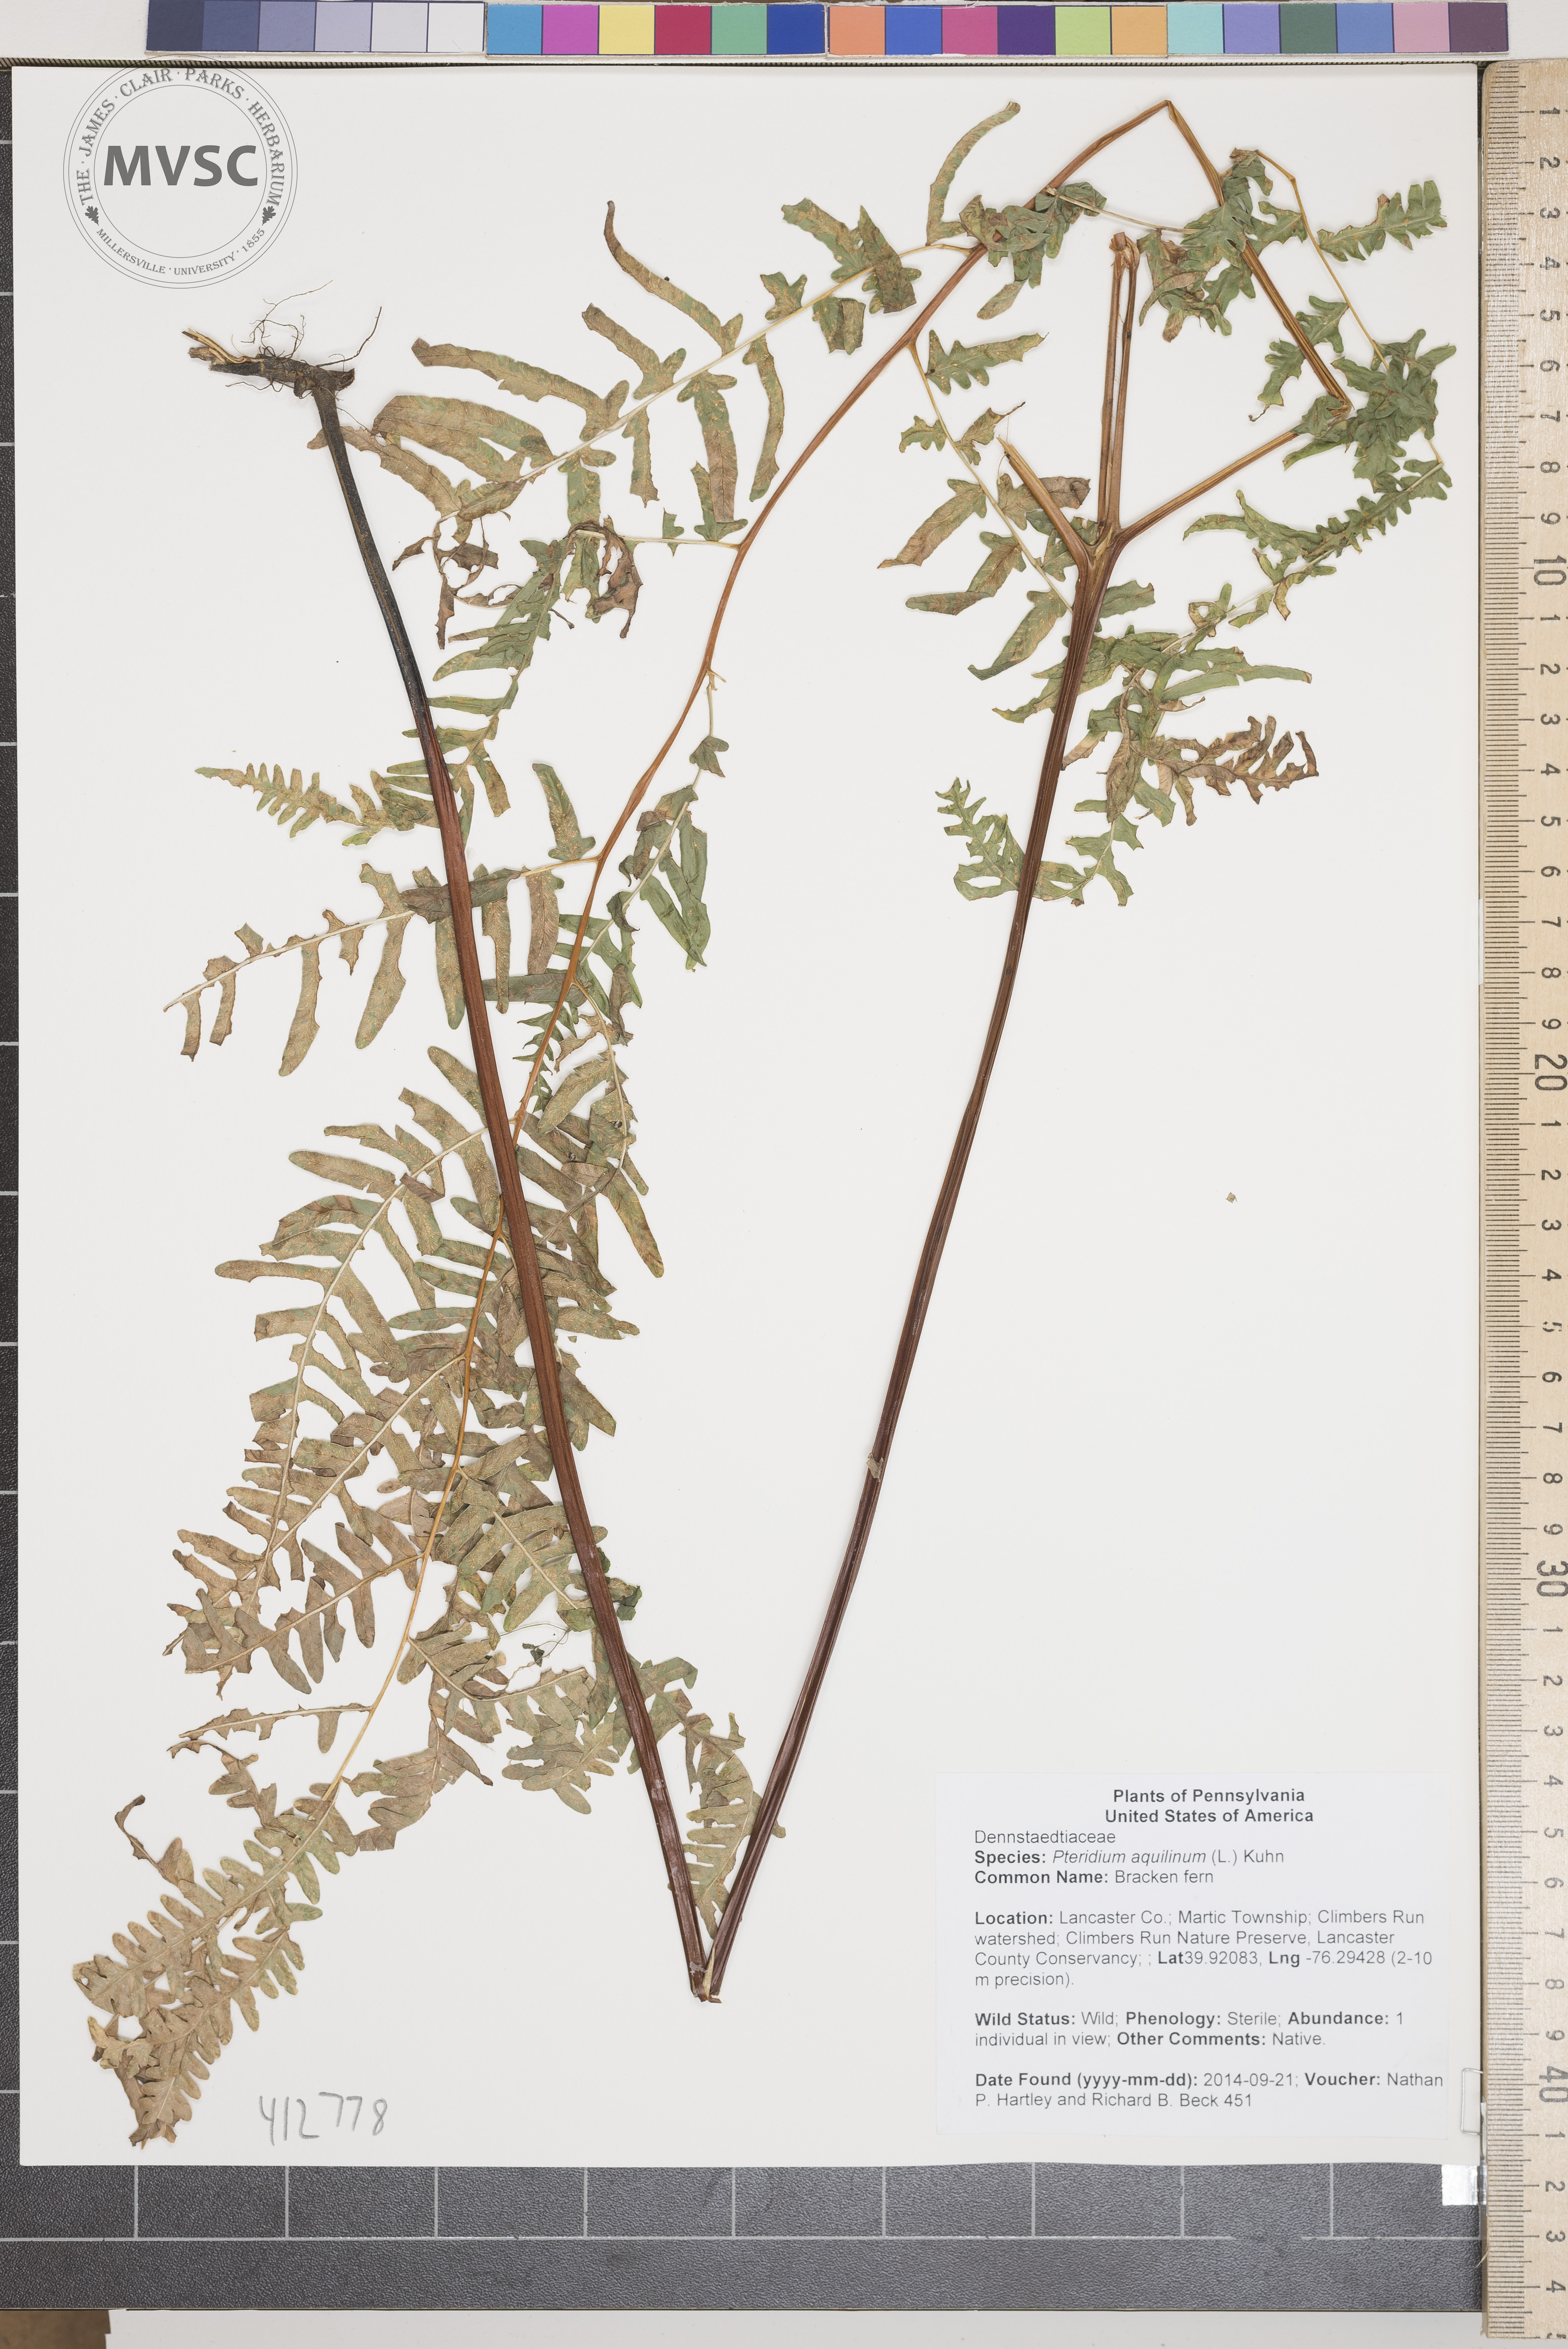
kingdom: Plantae
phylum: Tracheophyta
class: Polypodiopsida
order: Polypodiales
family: Dennstaedtiaceae
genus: Pteridium
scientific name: Pteridium aquilinum
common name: bracken fern
